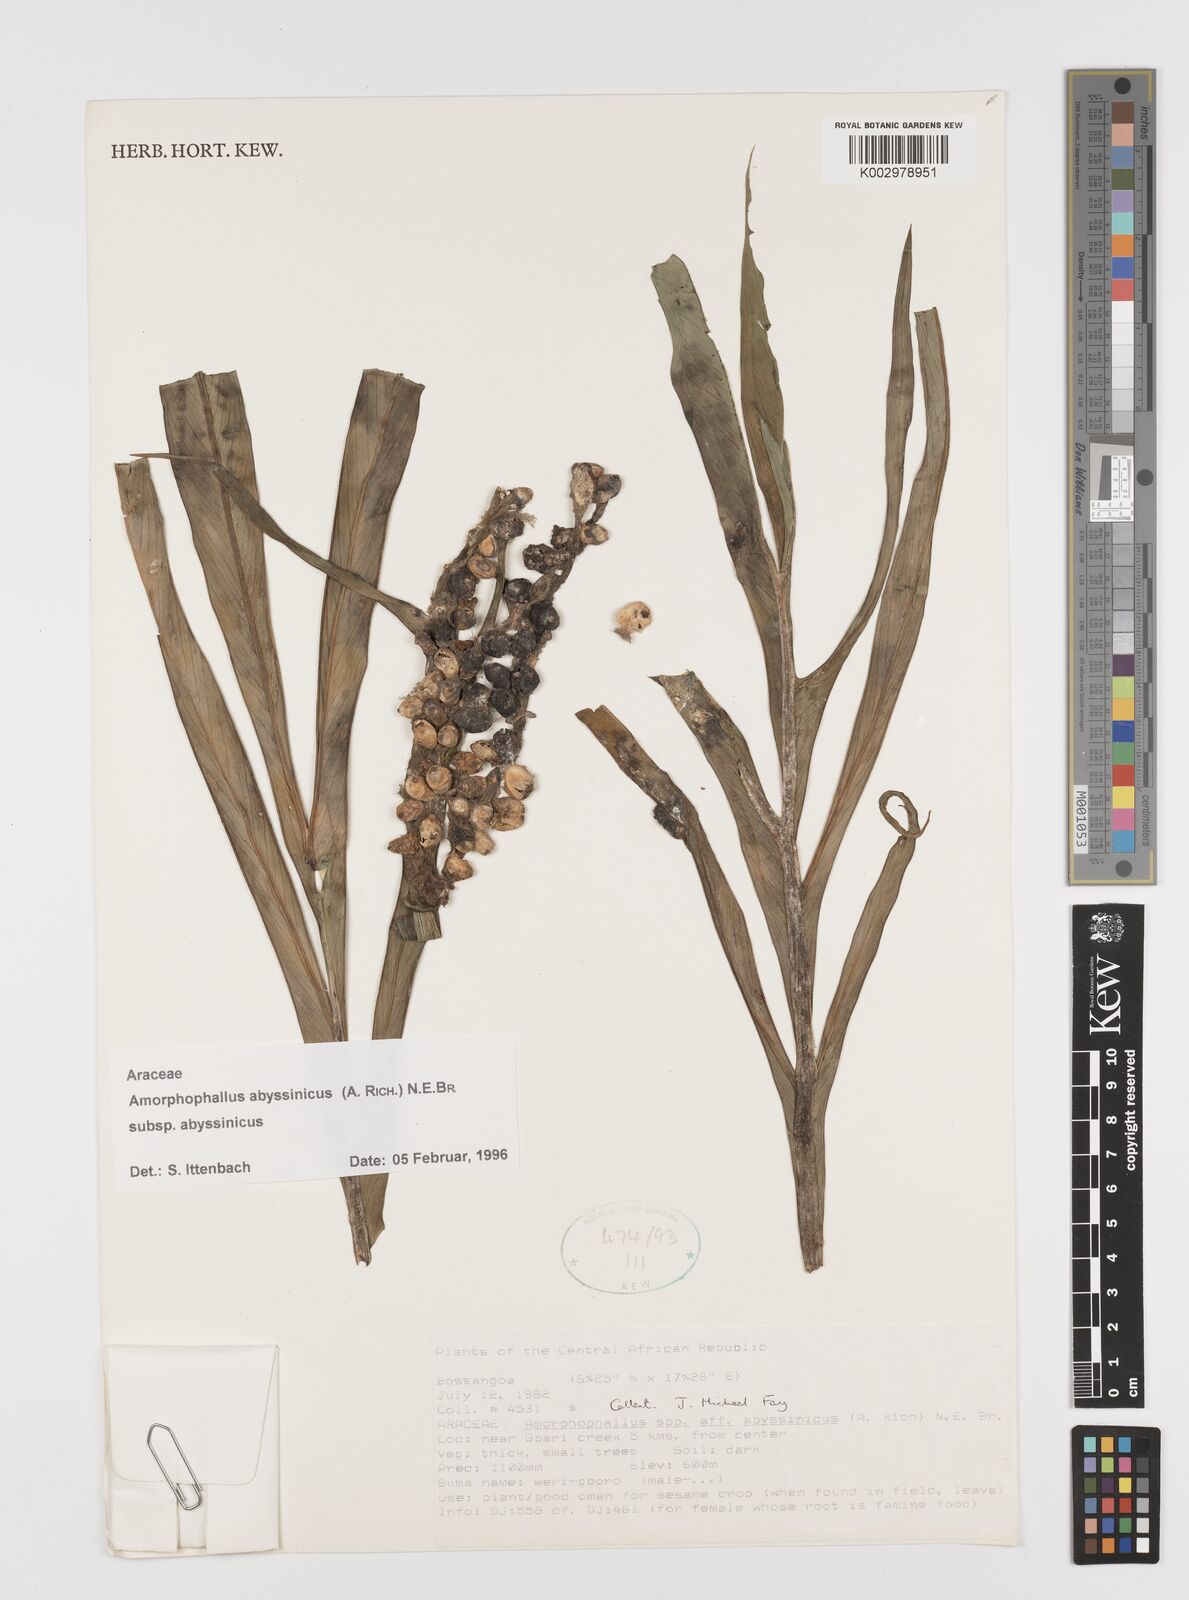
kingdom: Plantae
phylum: Tracheophyta
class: Liliopsida
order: Alismatales
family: Araceae
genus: Amorphophallus
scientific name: Amorphophallus abyssinicus
